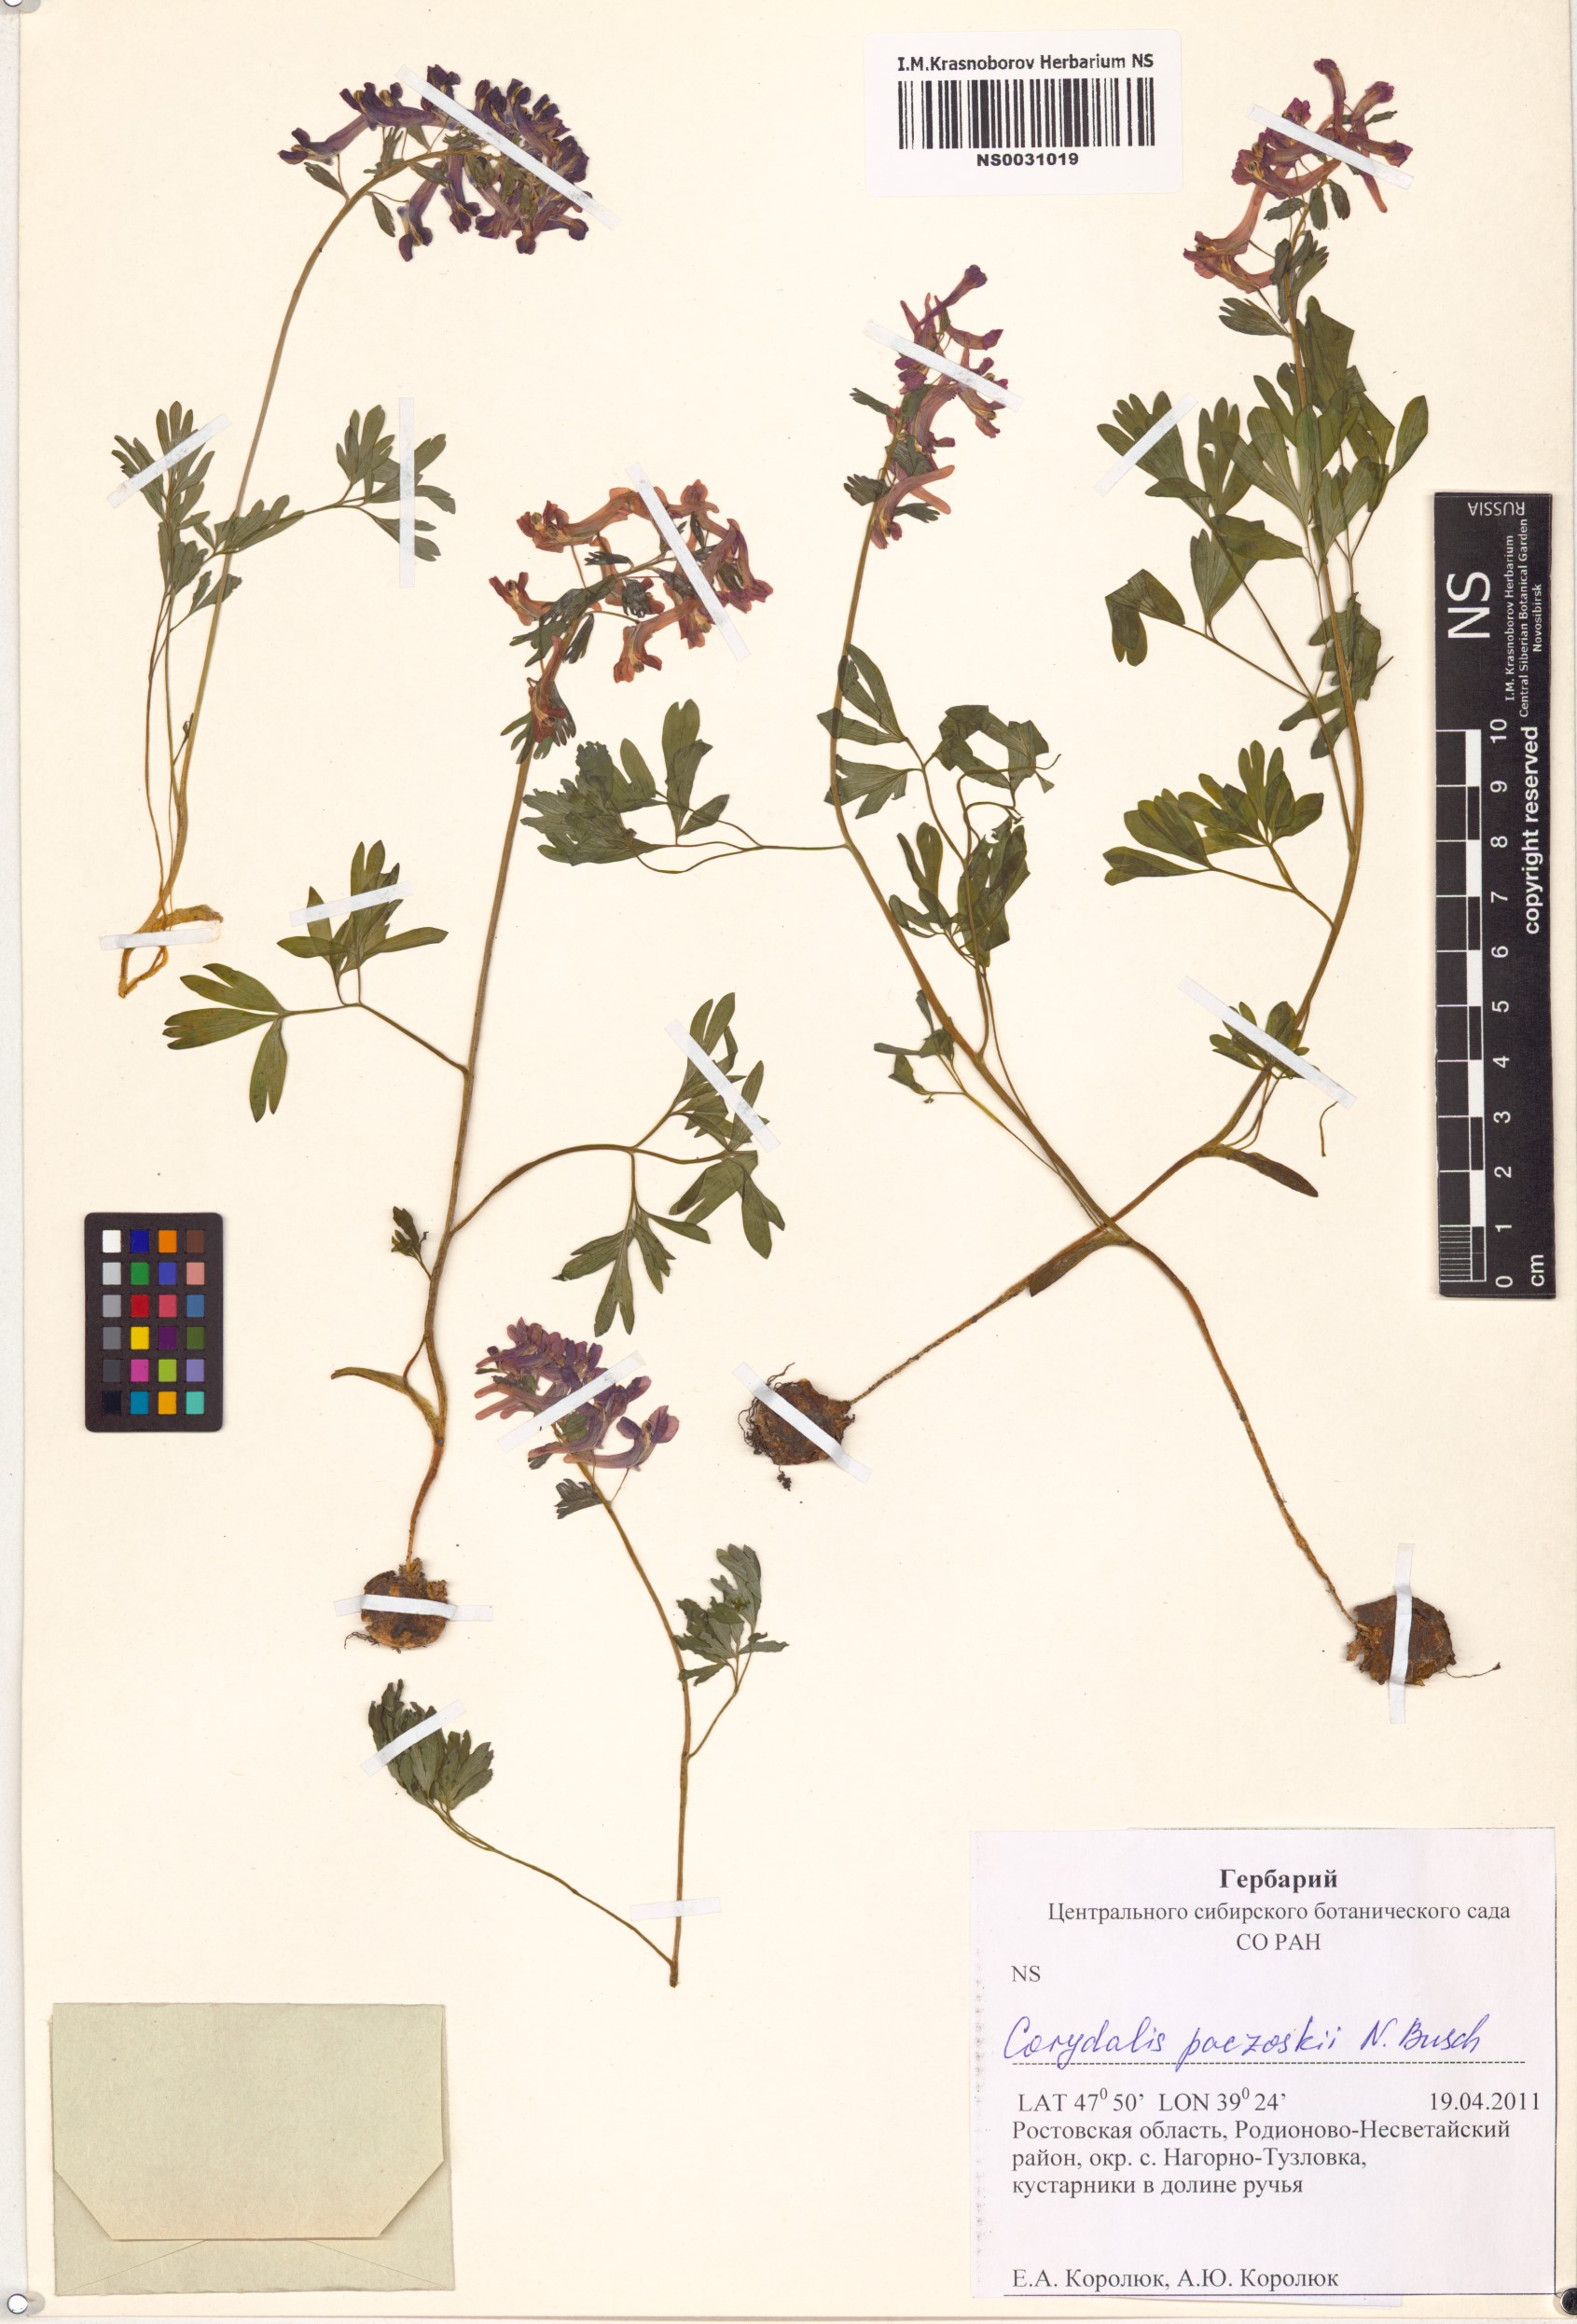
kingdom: Plantae
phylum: Tracheophyta
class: Magnoliopsida
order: Ranunculales
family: Papaveraceae
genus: Corydalis
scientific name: Corydalis paczoskii
